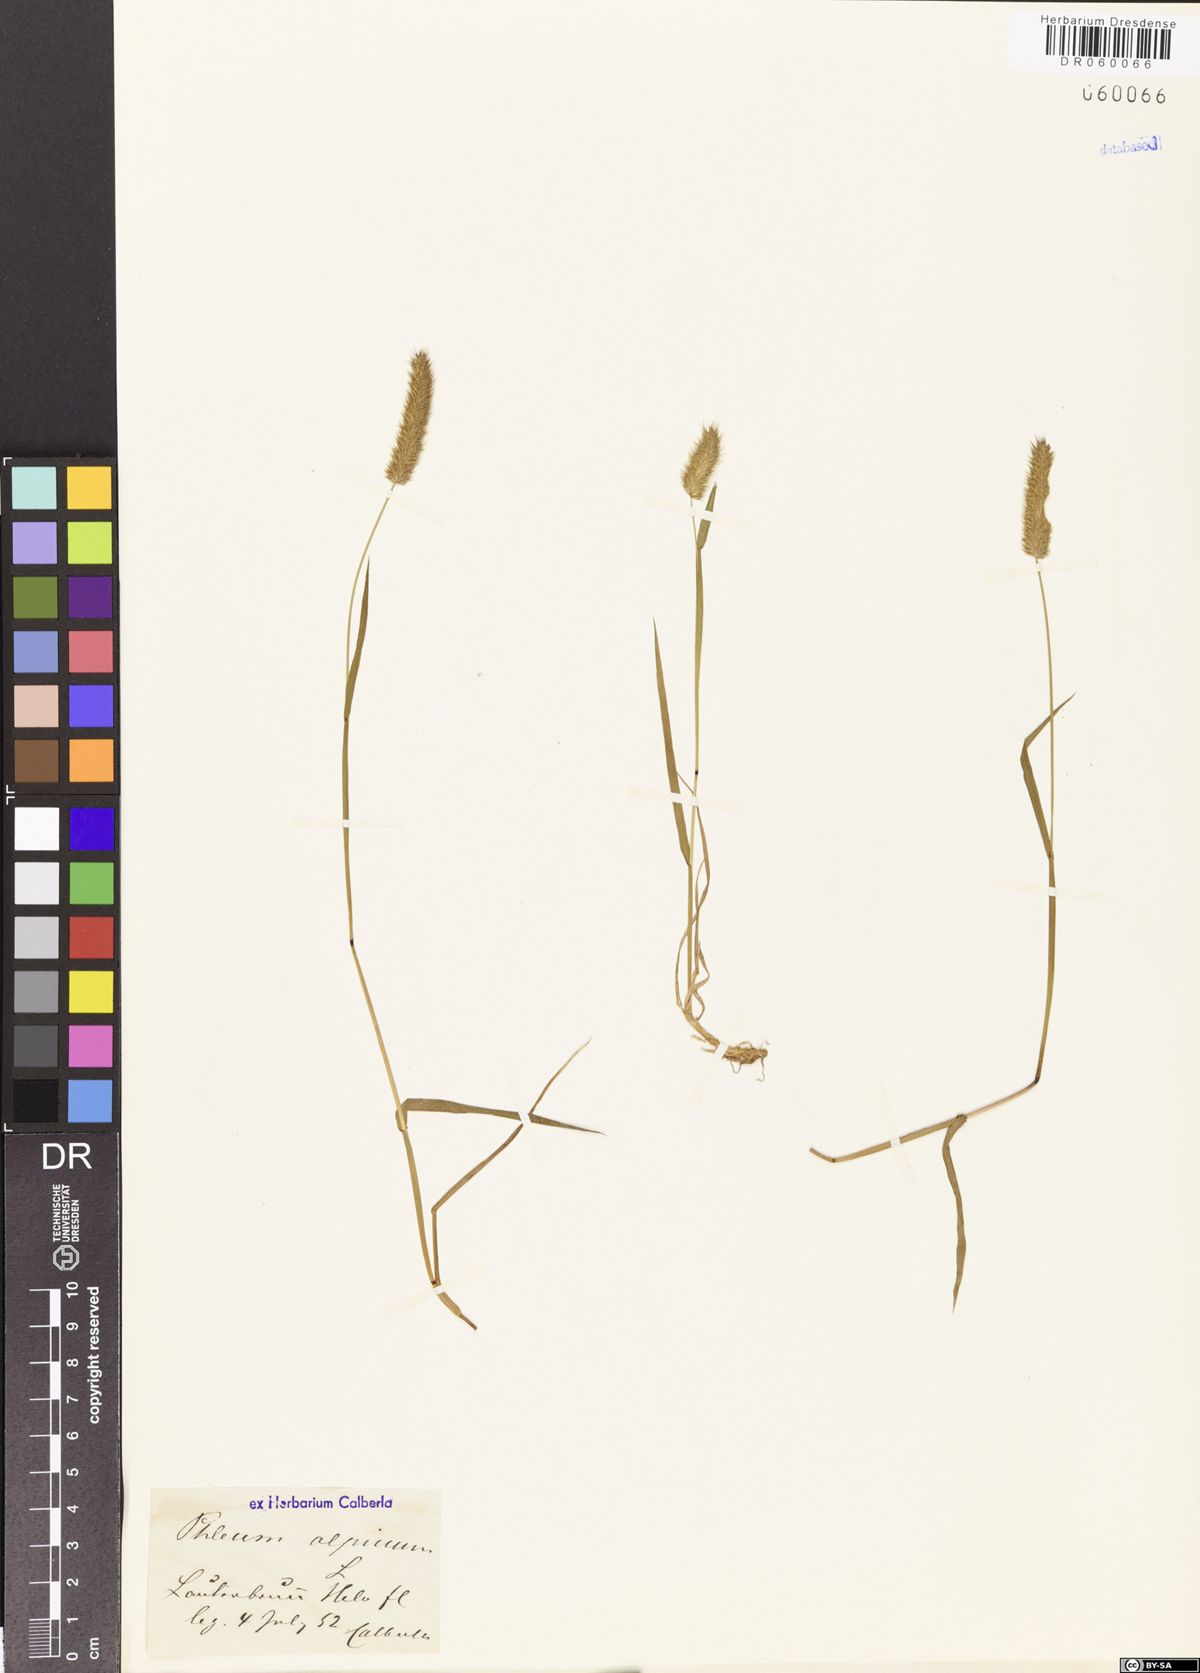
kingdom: Plantae
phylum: Tracheophyta
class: Liliopsida
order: Poales
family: Poaceae
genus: Phleum
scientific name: Phleum alpinum
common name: Alpine cat's-tail
